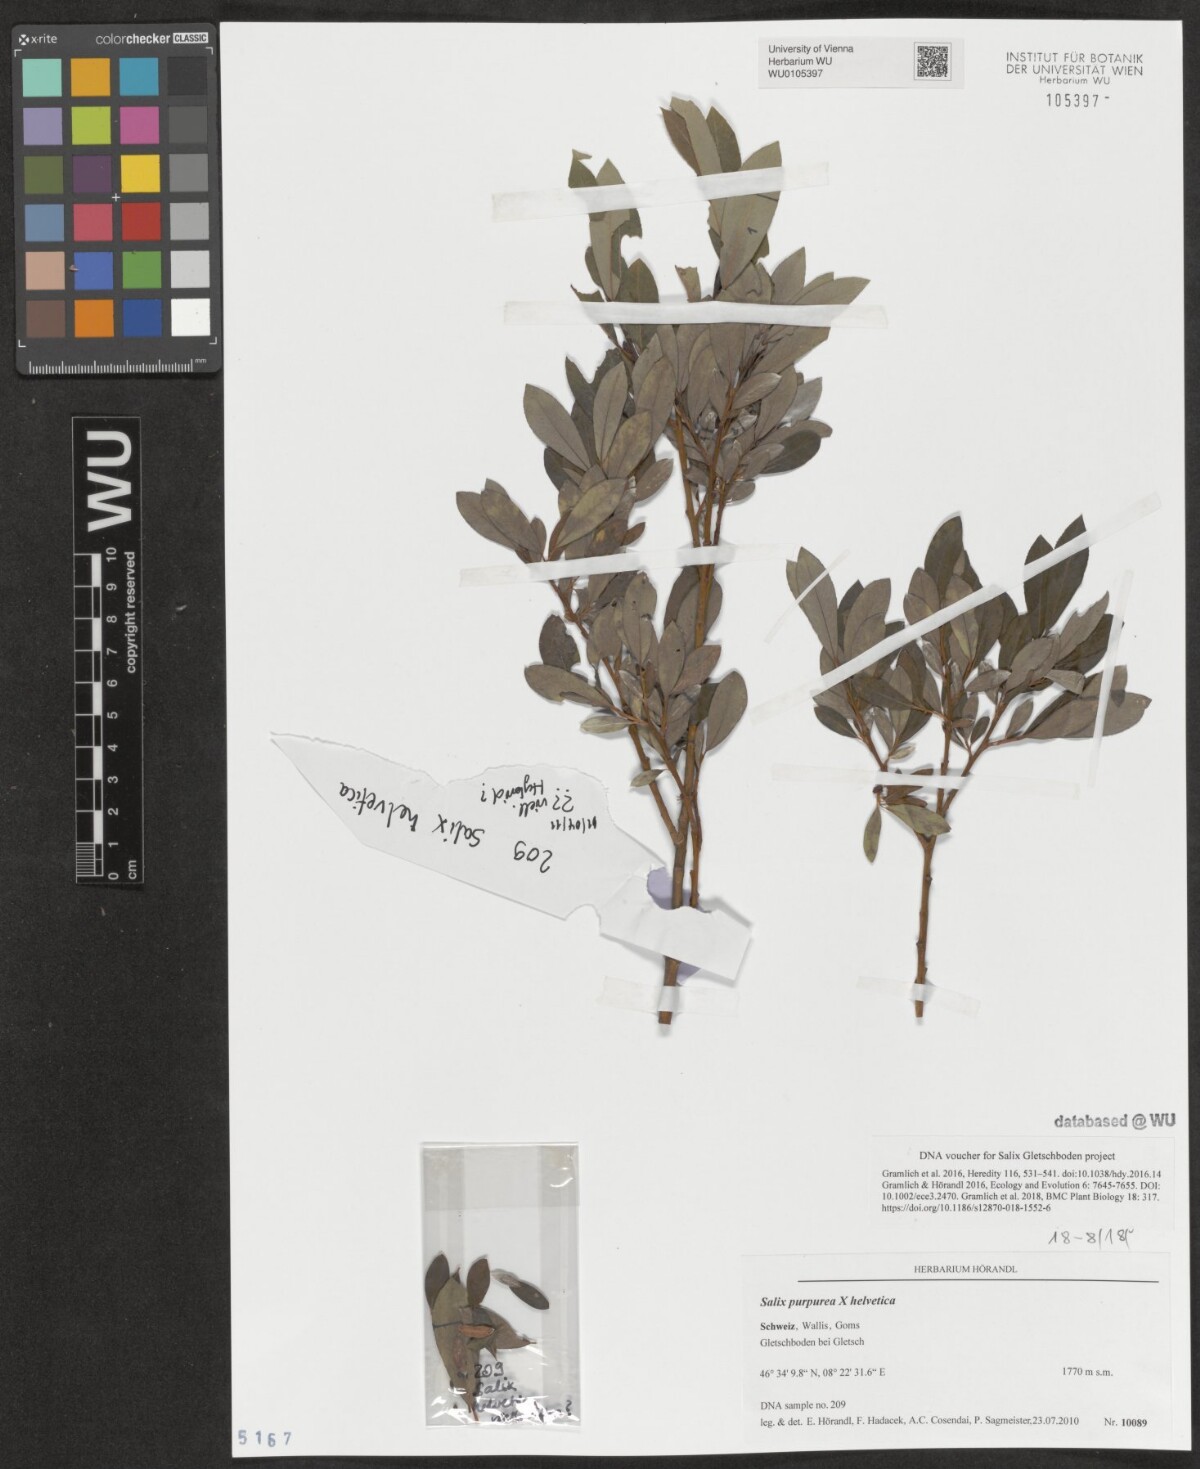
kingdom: Plantae
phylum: Tracheophyta
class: Magnoliopsida
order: Malpighiales
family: Salicaceae
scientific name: Salicaceae
